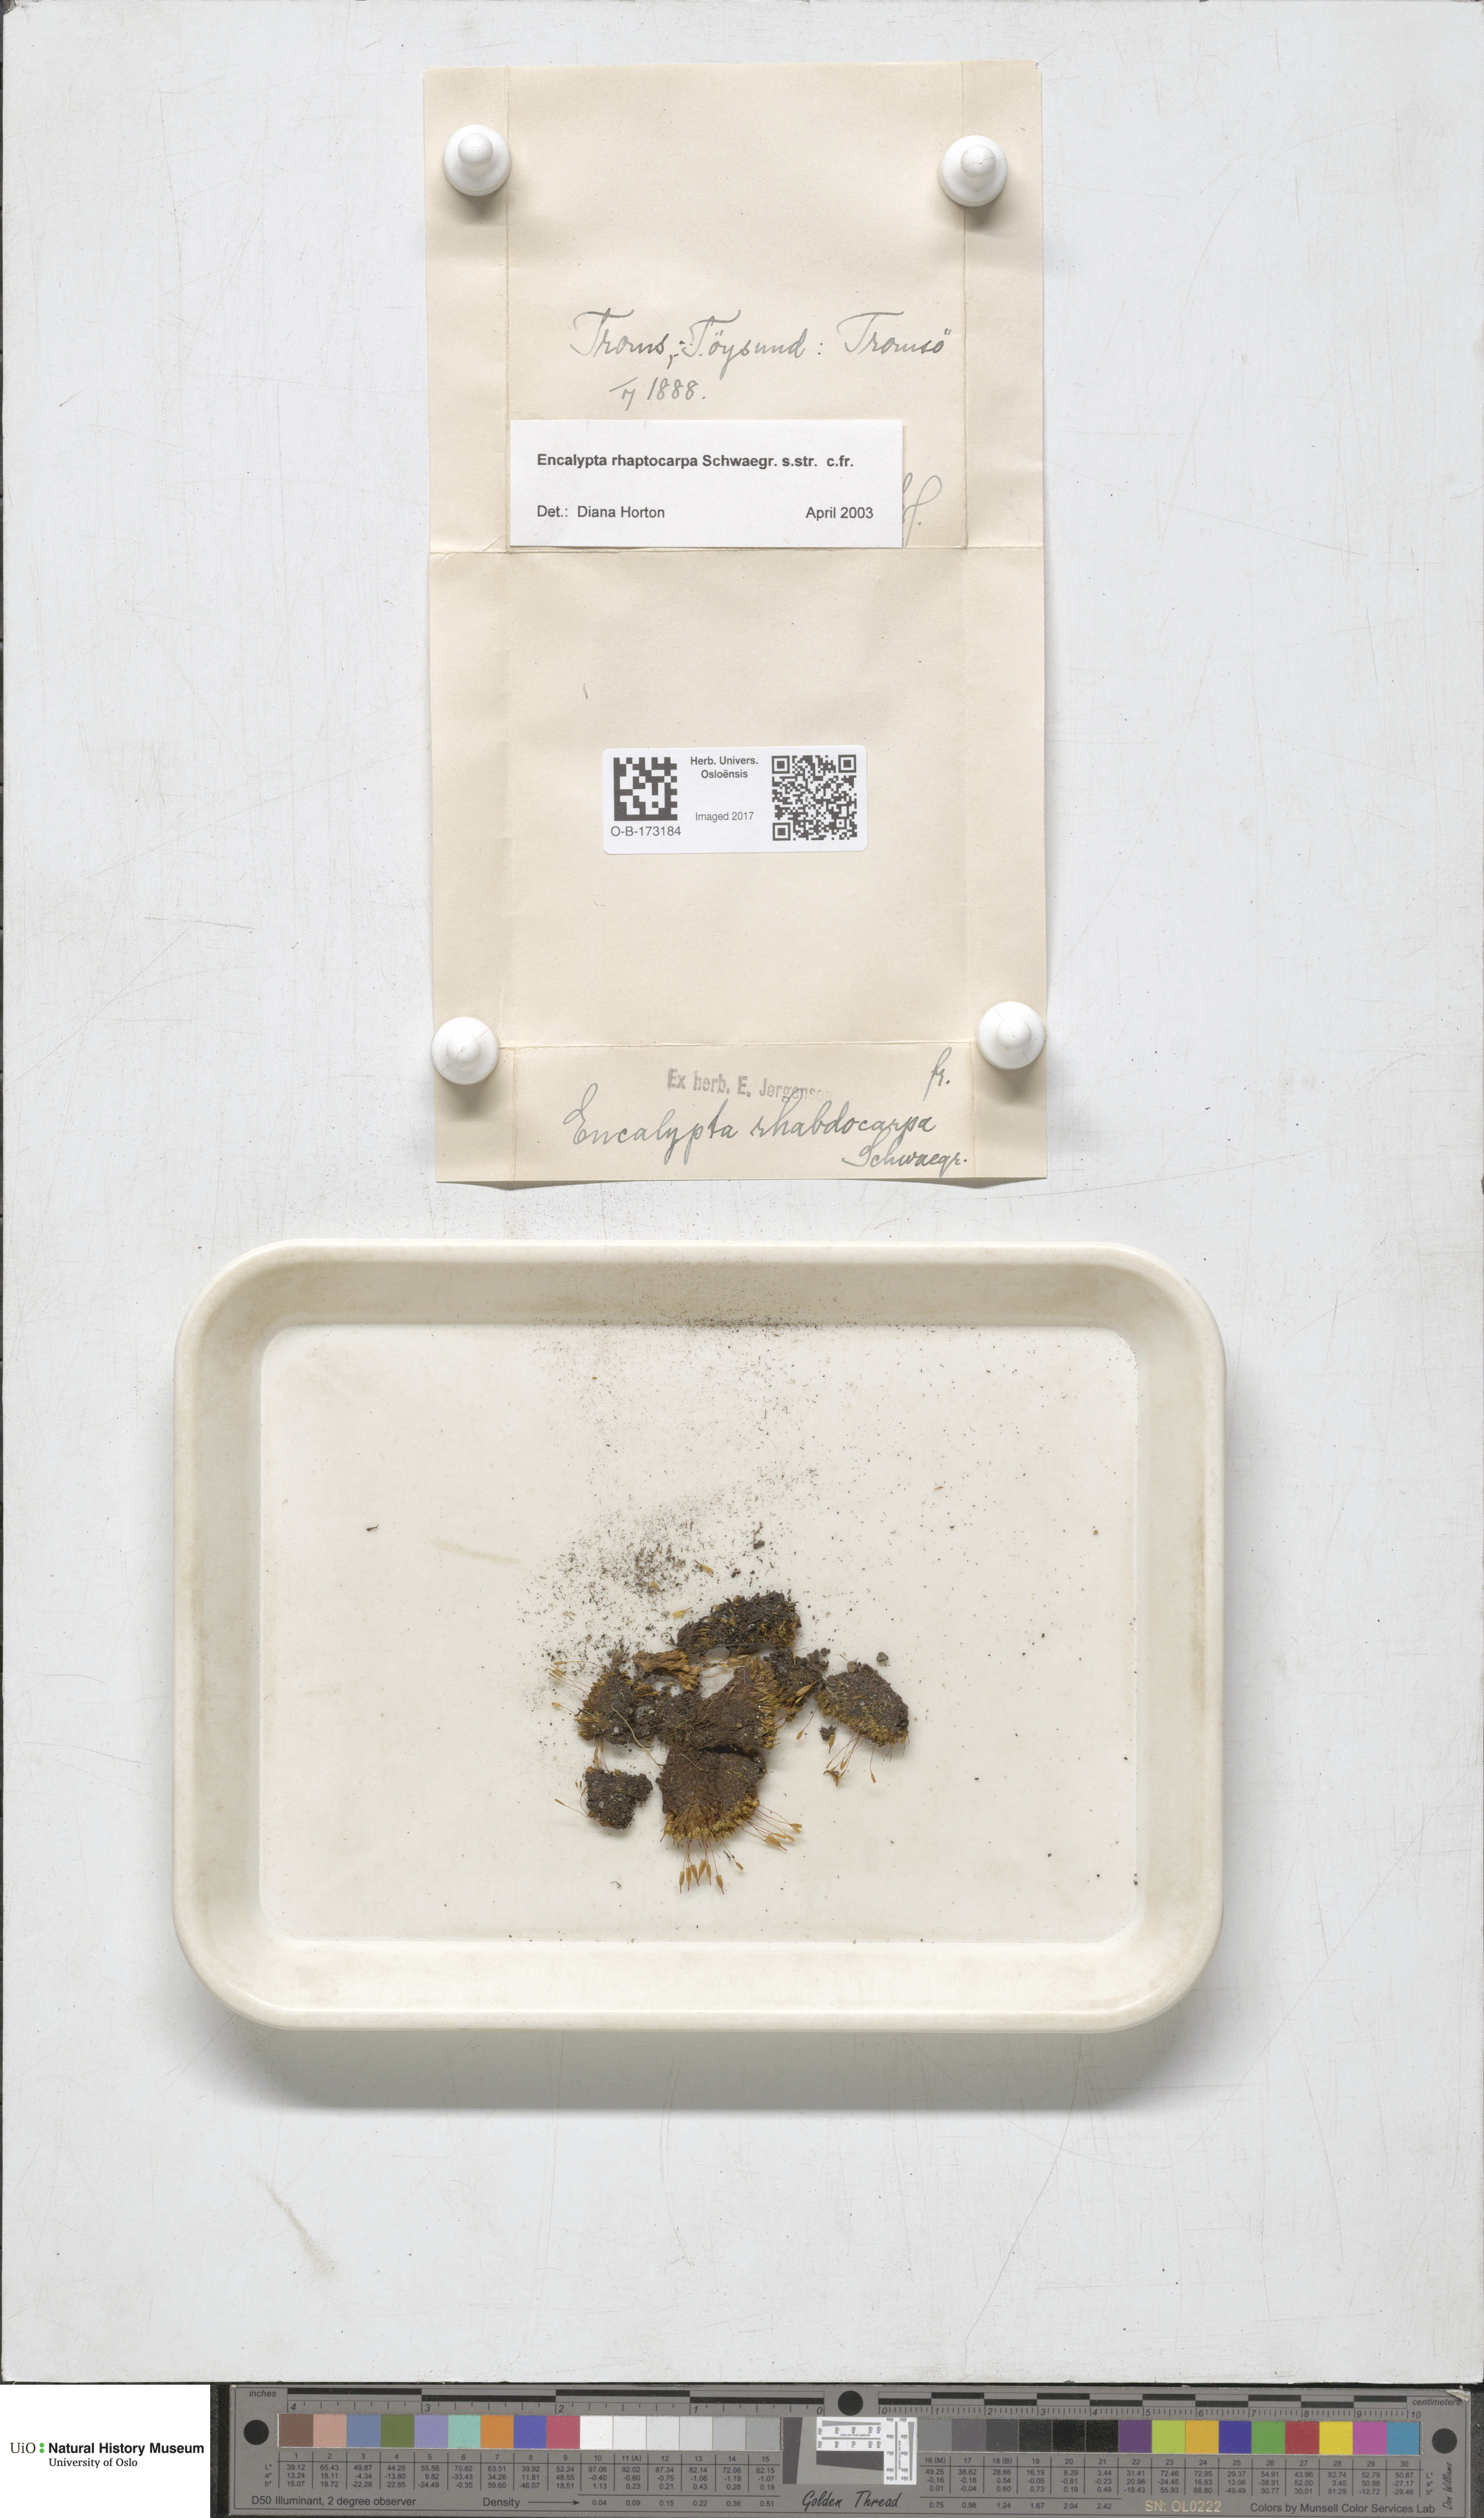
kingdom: Plantae
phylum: Bryophyta
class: Bryopsida
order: Encalyptales
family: Encalyptaceae
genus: Encalypta
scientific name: Encalypta rhaptocarpa
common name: Ribbed extinguisher moss
